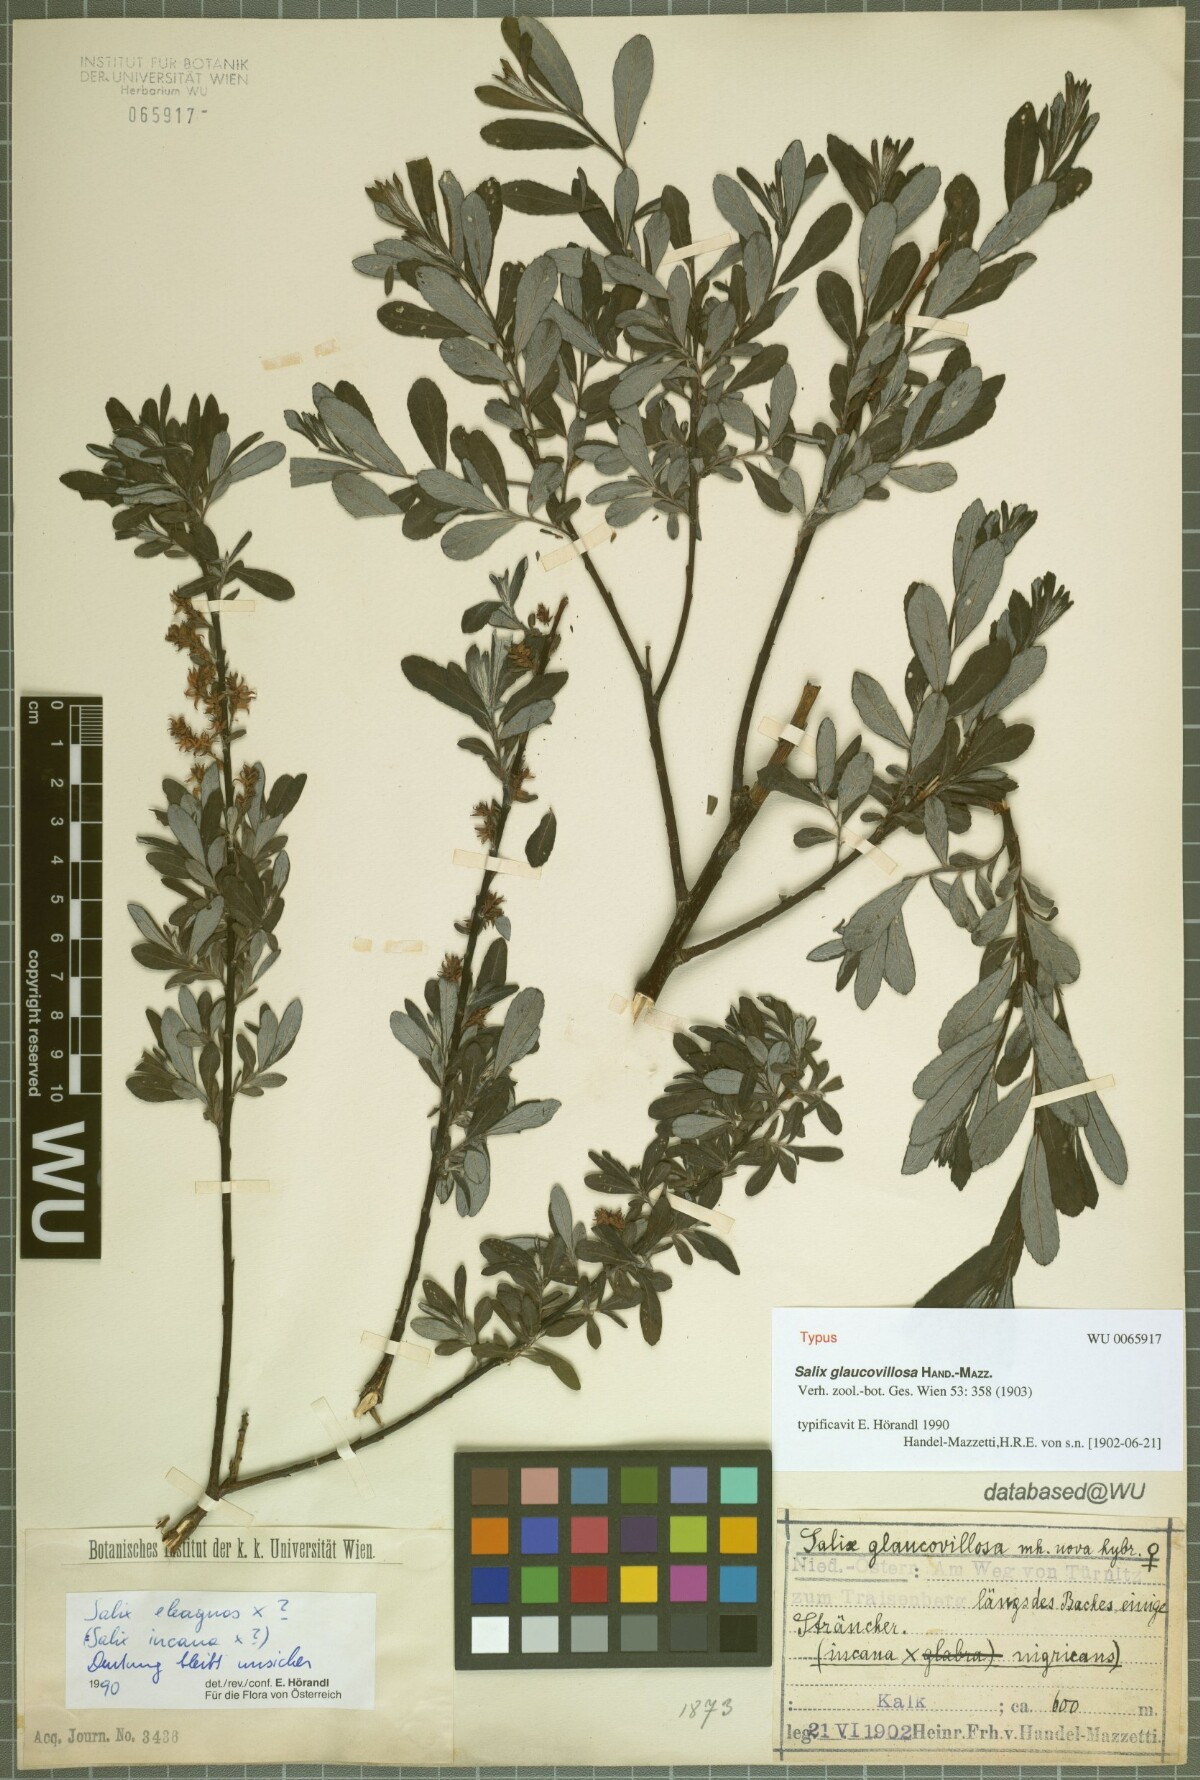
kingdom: Plantae
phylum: Tracheophyta
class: Magnoliopsida
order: Malpighiales
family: Salicaceae
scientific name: Salicaceae
